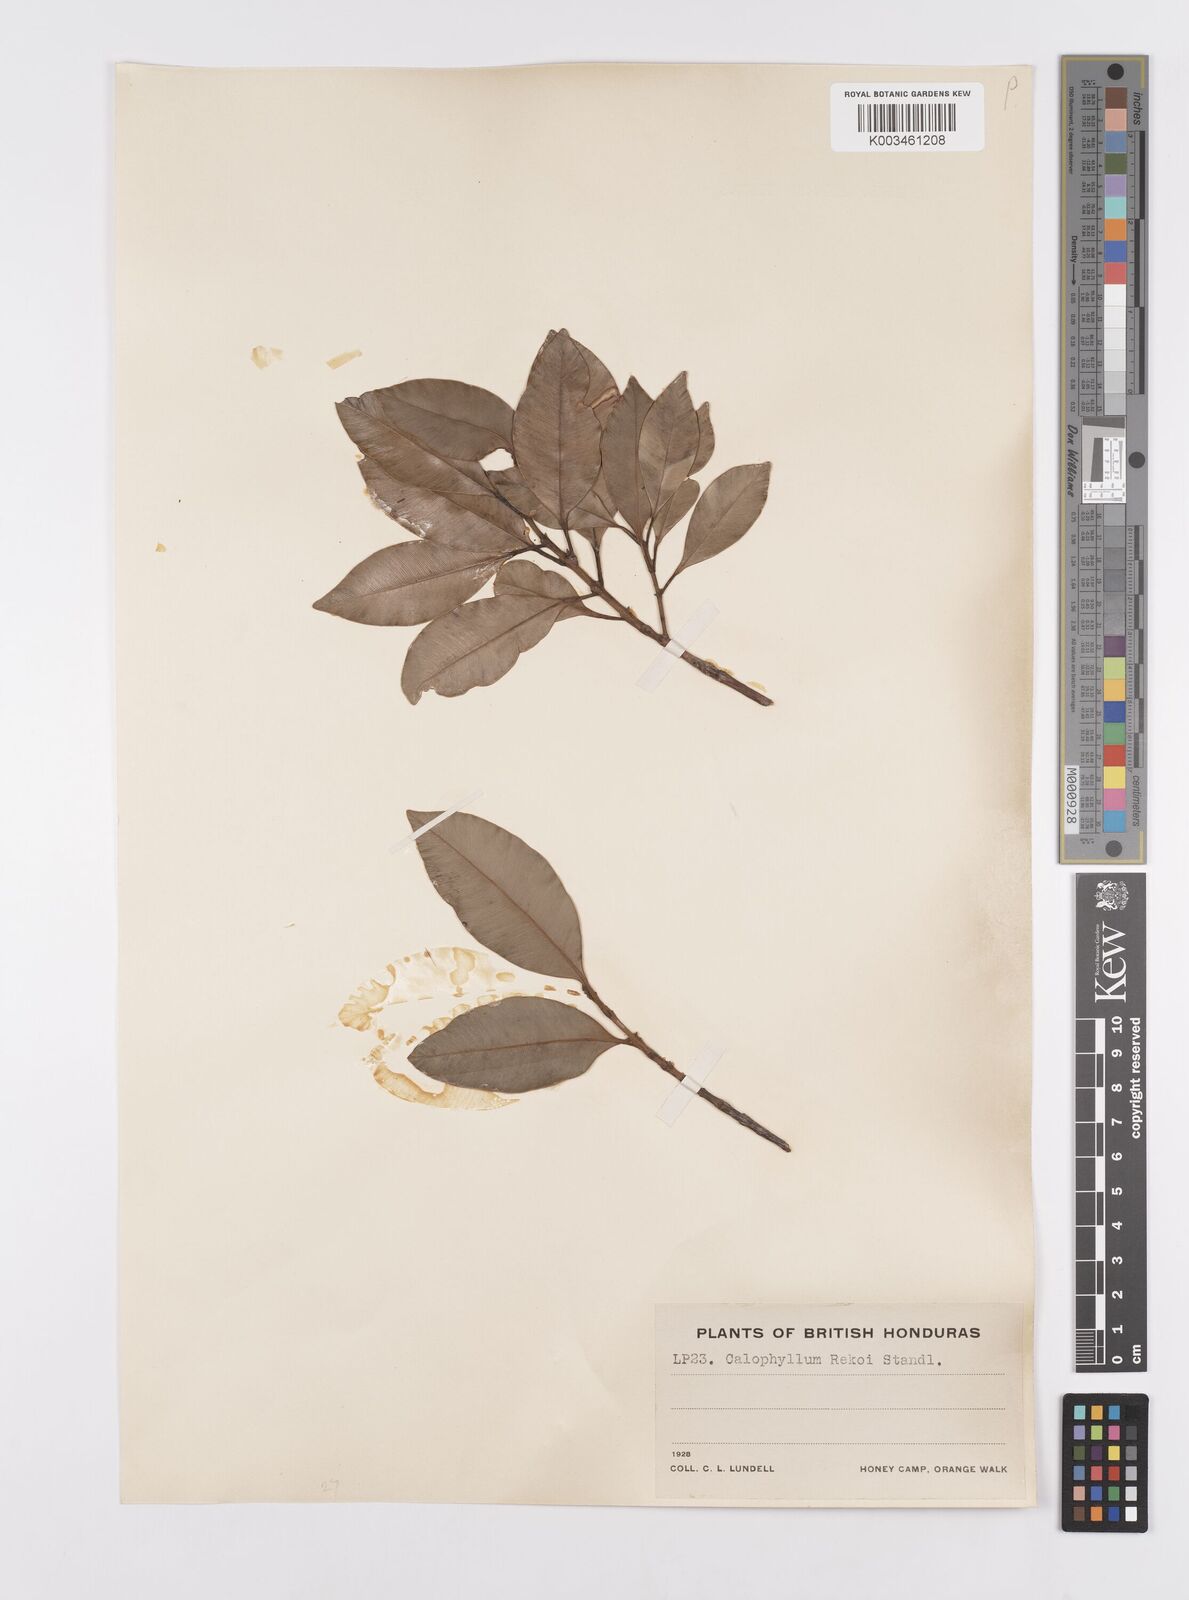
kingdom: Plantae
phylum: Tracheophyta
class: Magnoliopsida
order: Malpighiales
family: Calophyllaceae
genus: Calophyllum
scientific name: Calophyllum brasiliense
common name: Santa maria
